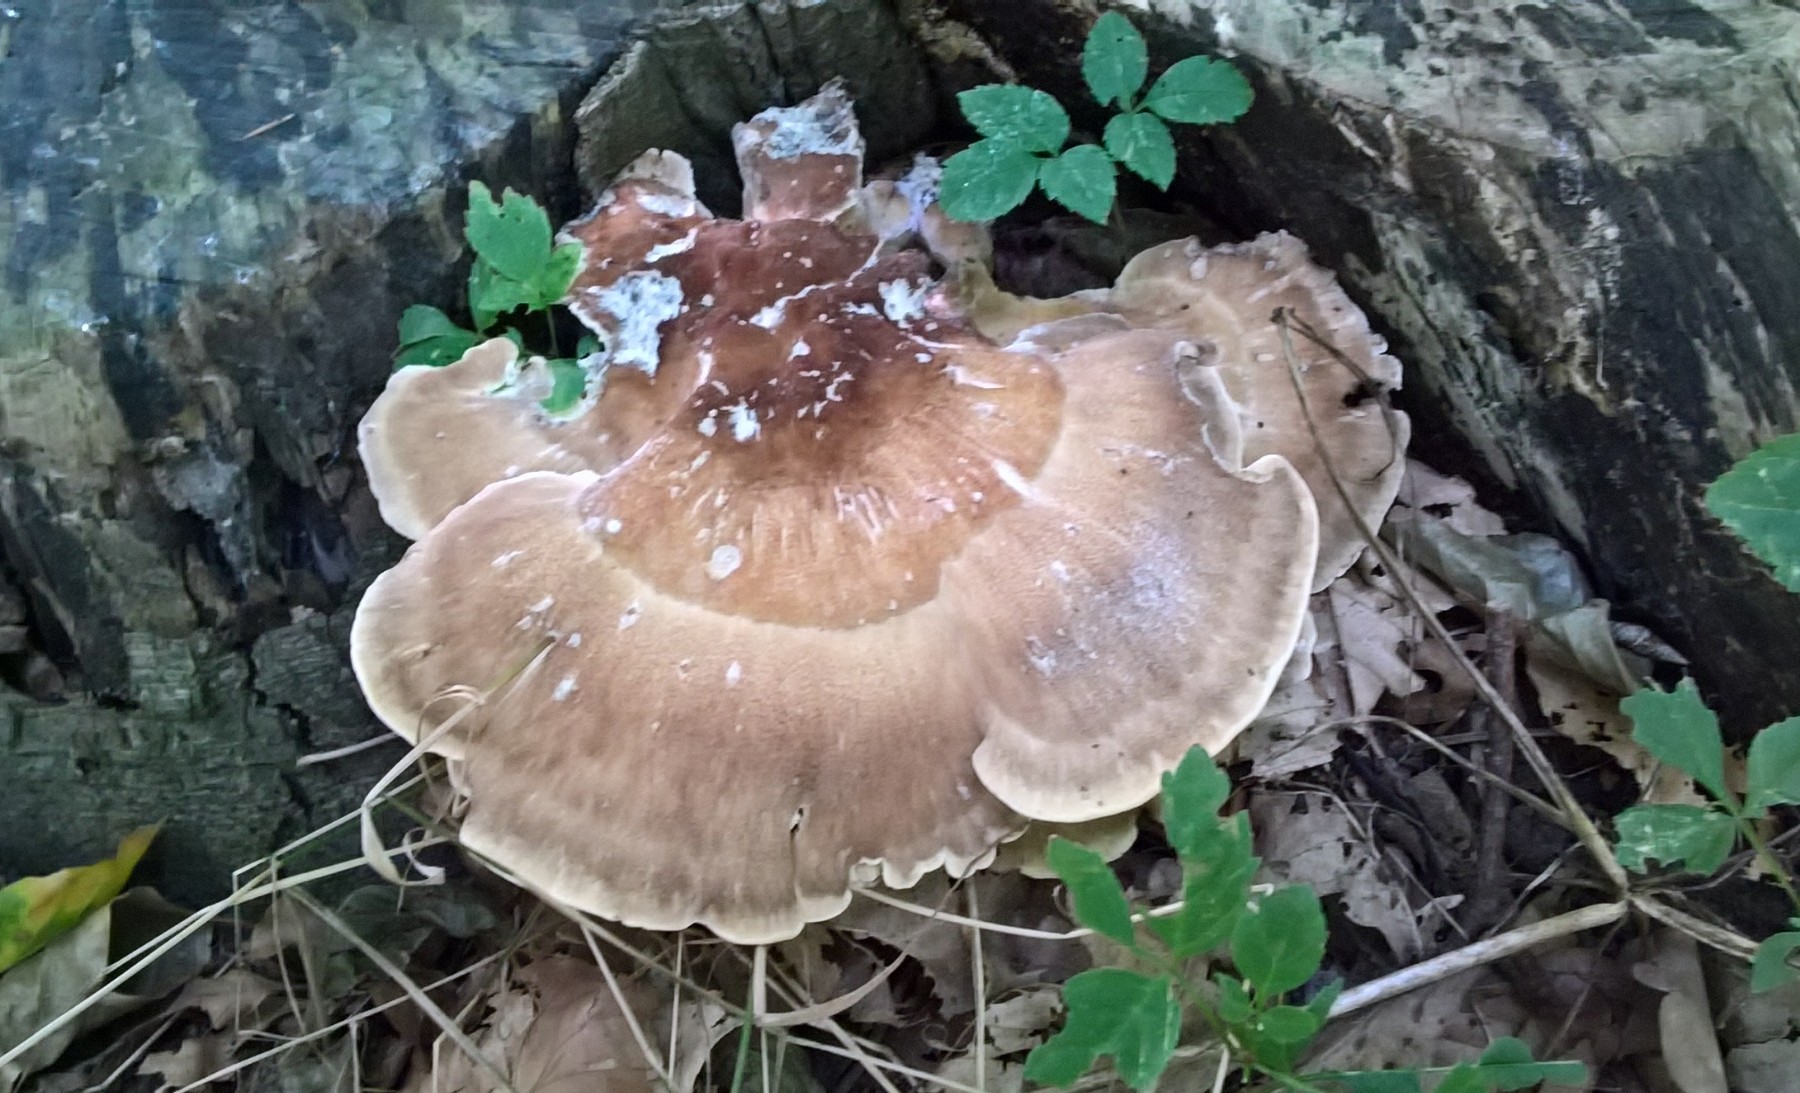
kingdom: Fungi
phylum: Basidiomycota
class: Agaricomycetes
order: Polyporales
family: Meripilaceae
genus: Meripilus
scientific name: Meripilus giganteus
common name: kæmpeporesvamp
